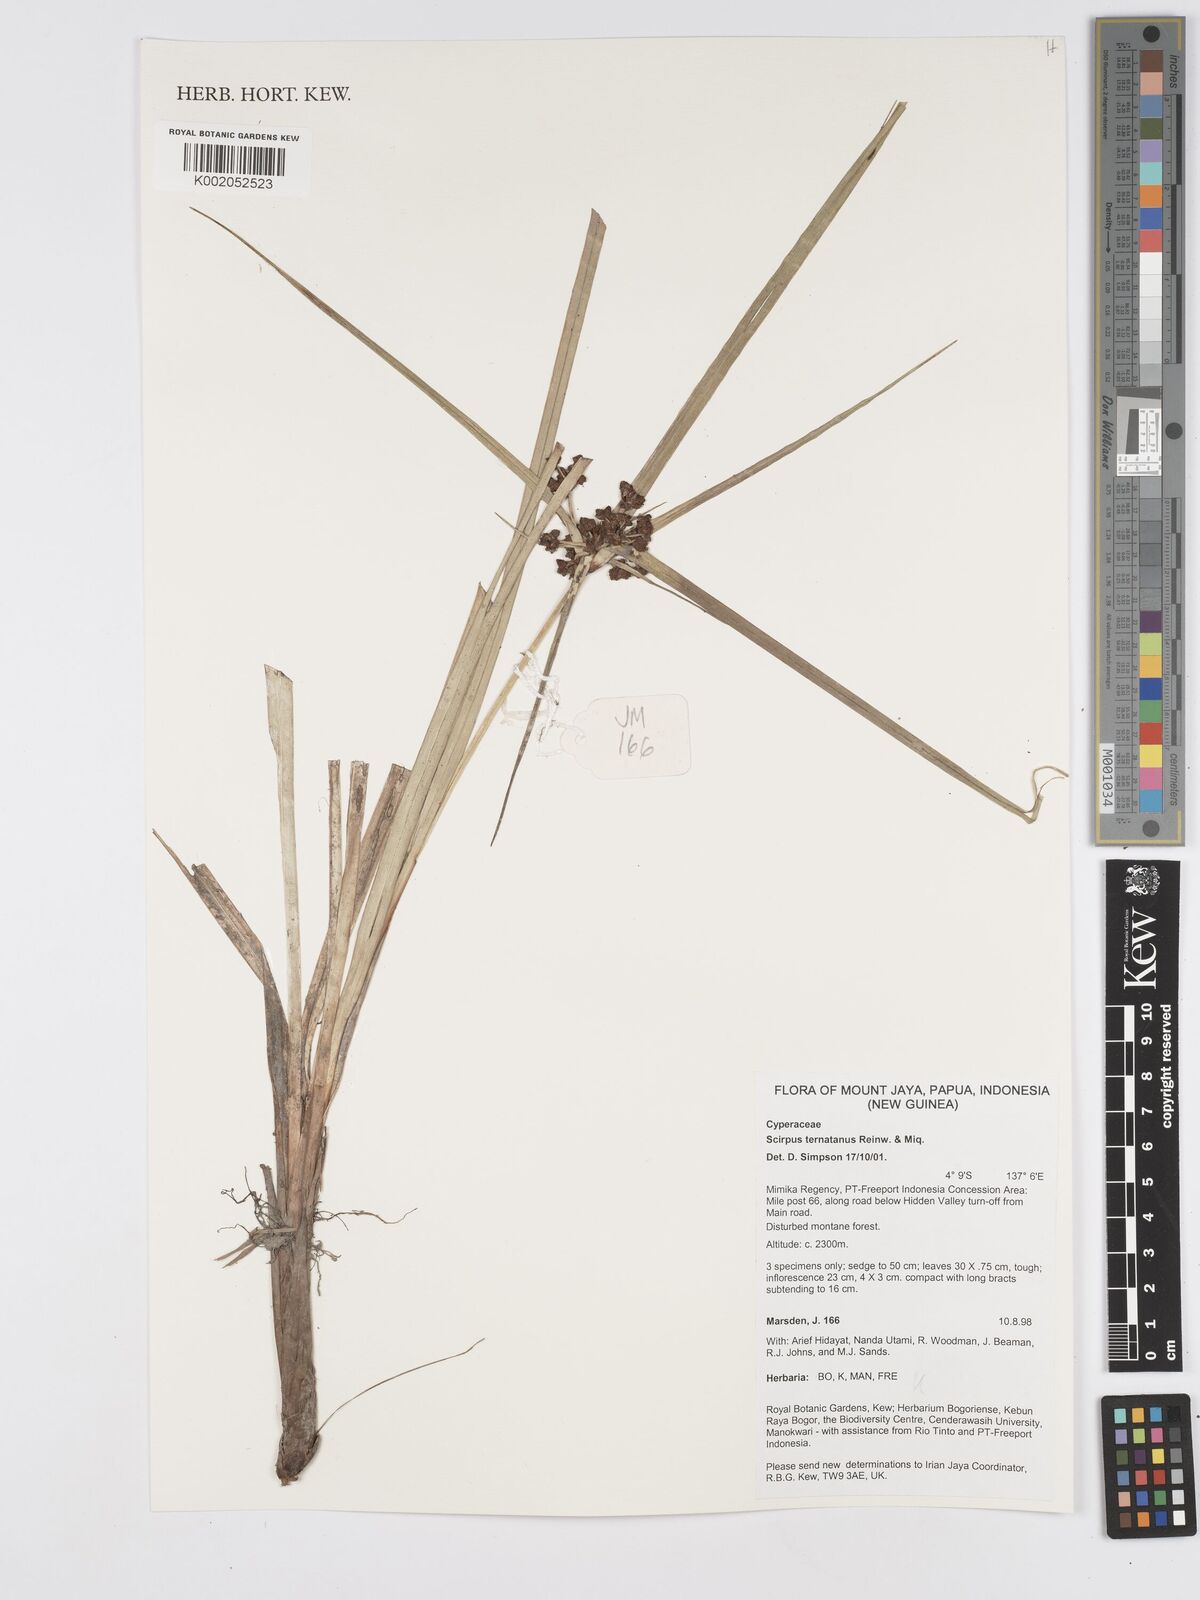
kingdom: Plantae
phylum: Tracheophyta
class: Liliopsida
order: Poales
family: Cyperaceae
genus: Scirpus
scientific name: Scirpus ternatanus
